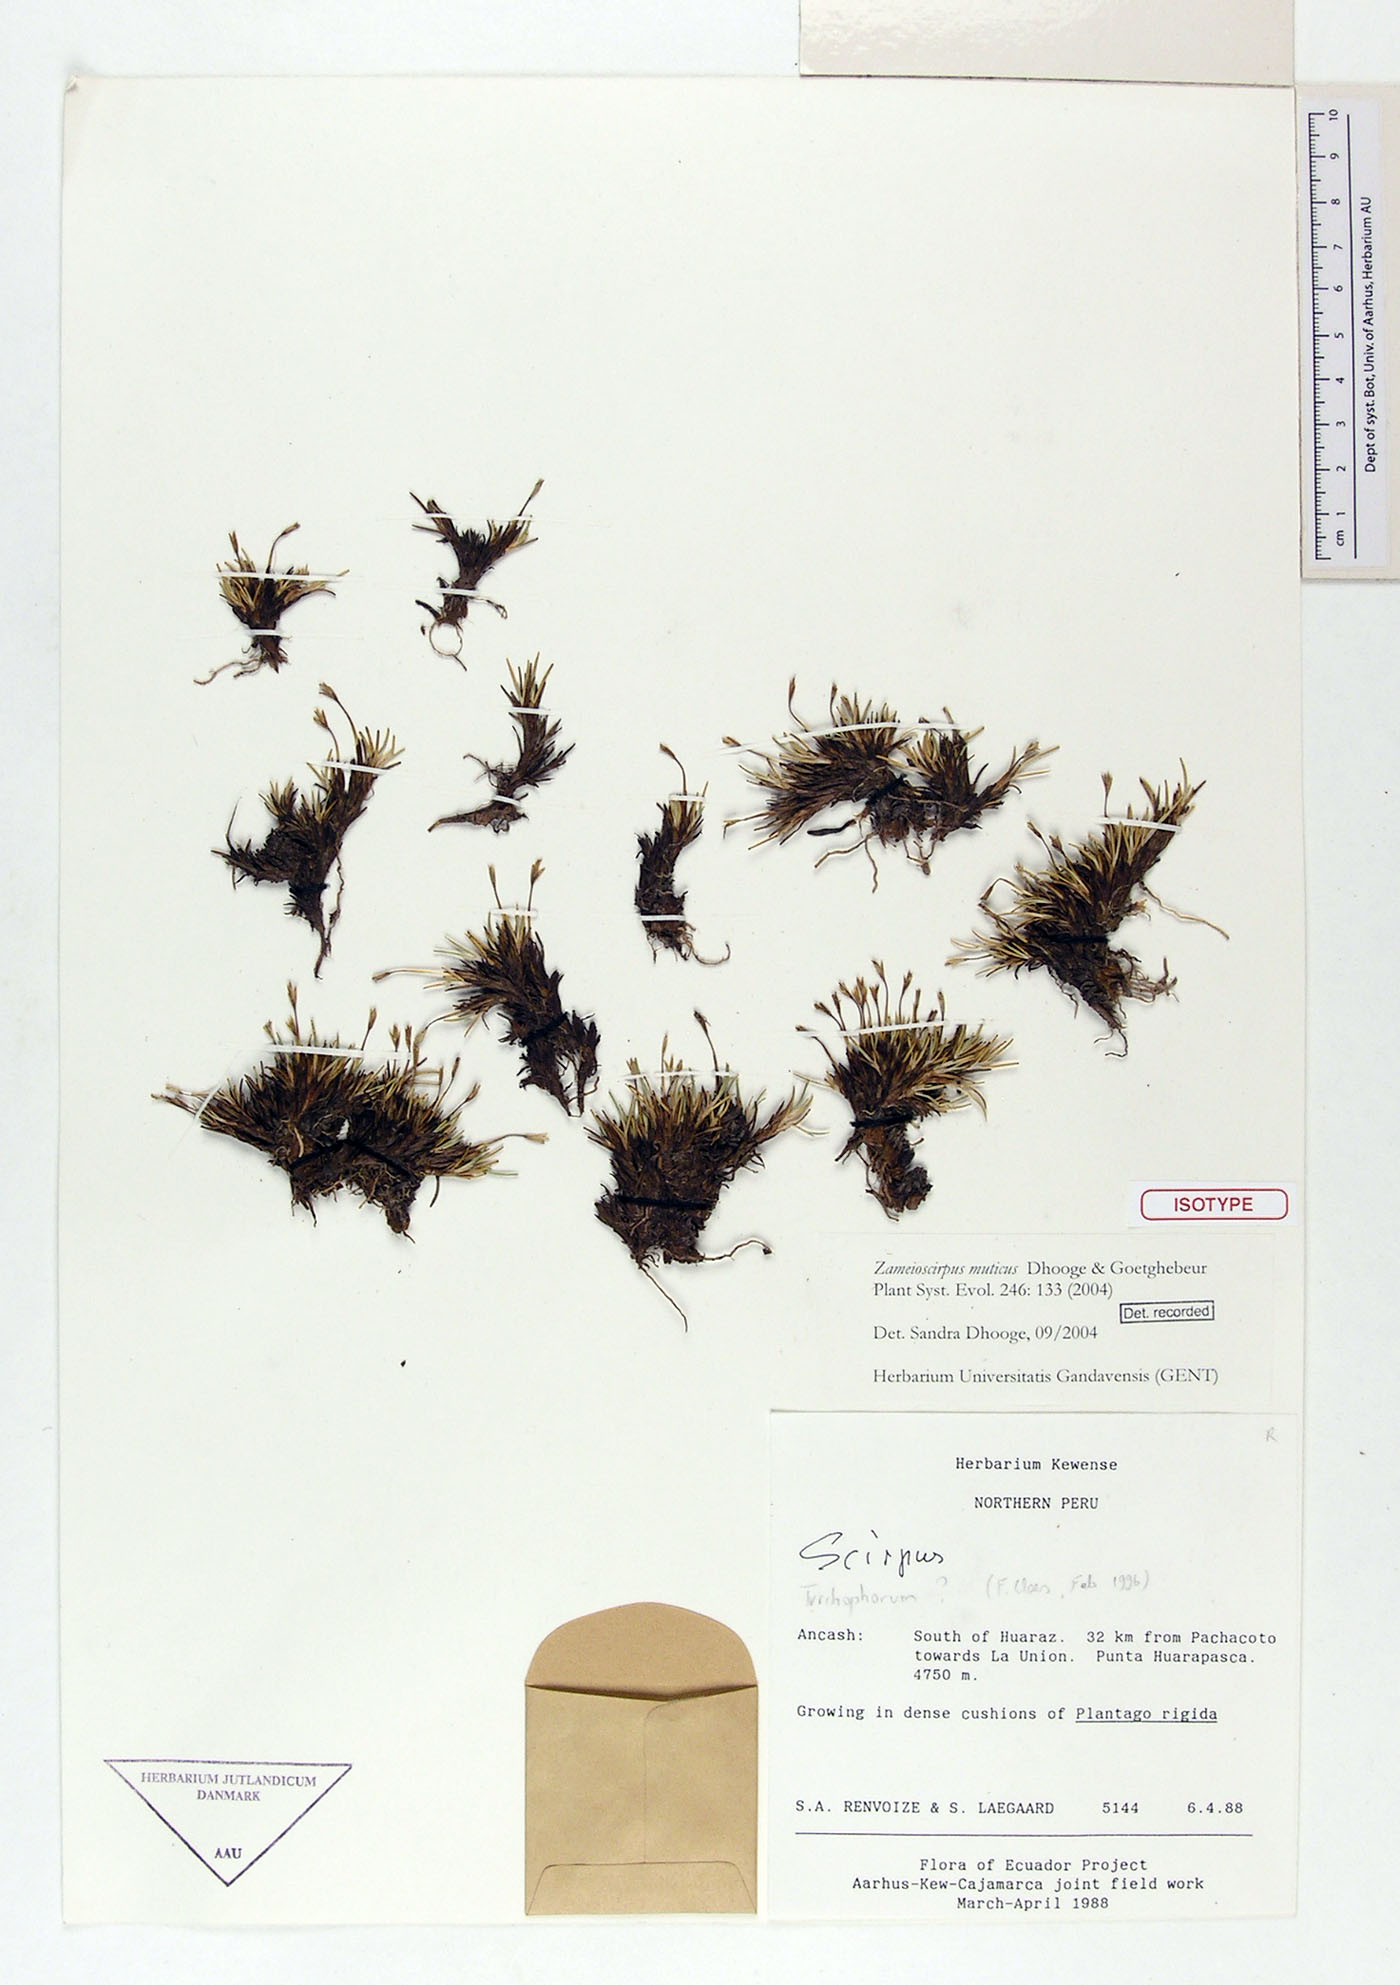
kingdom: Plantae
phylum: Tracheophyta
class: Liliopsida
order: Poales
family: Cyperaceae
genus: Zameioscirpus
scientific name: Zameioscirpus muticus
